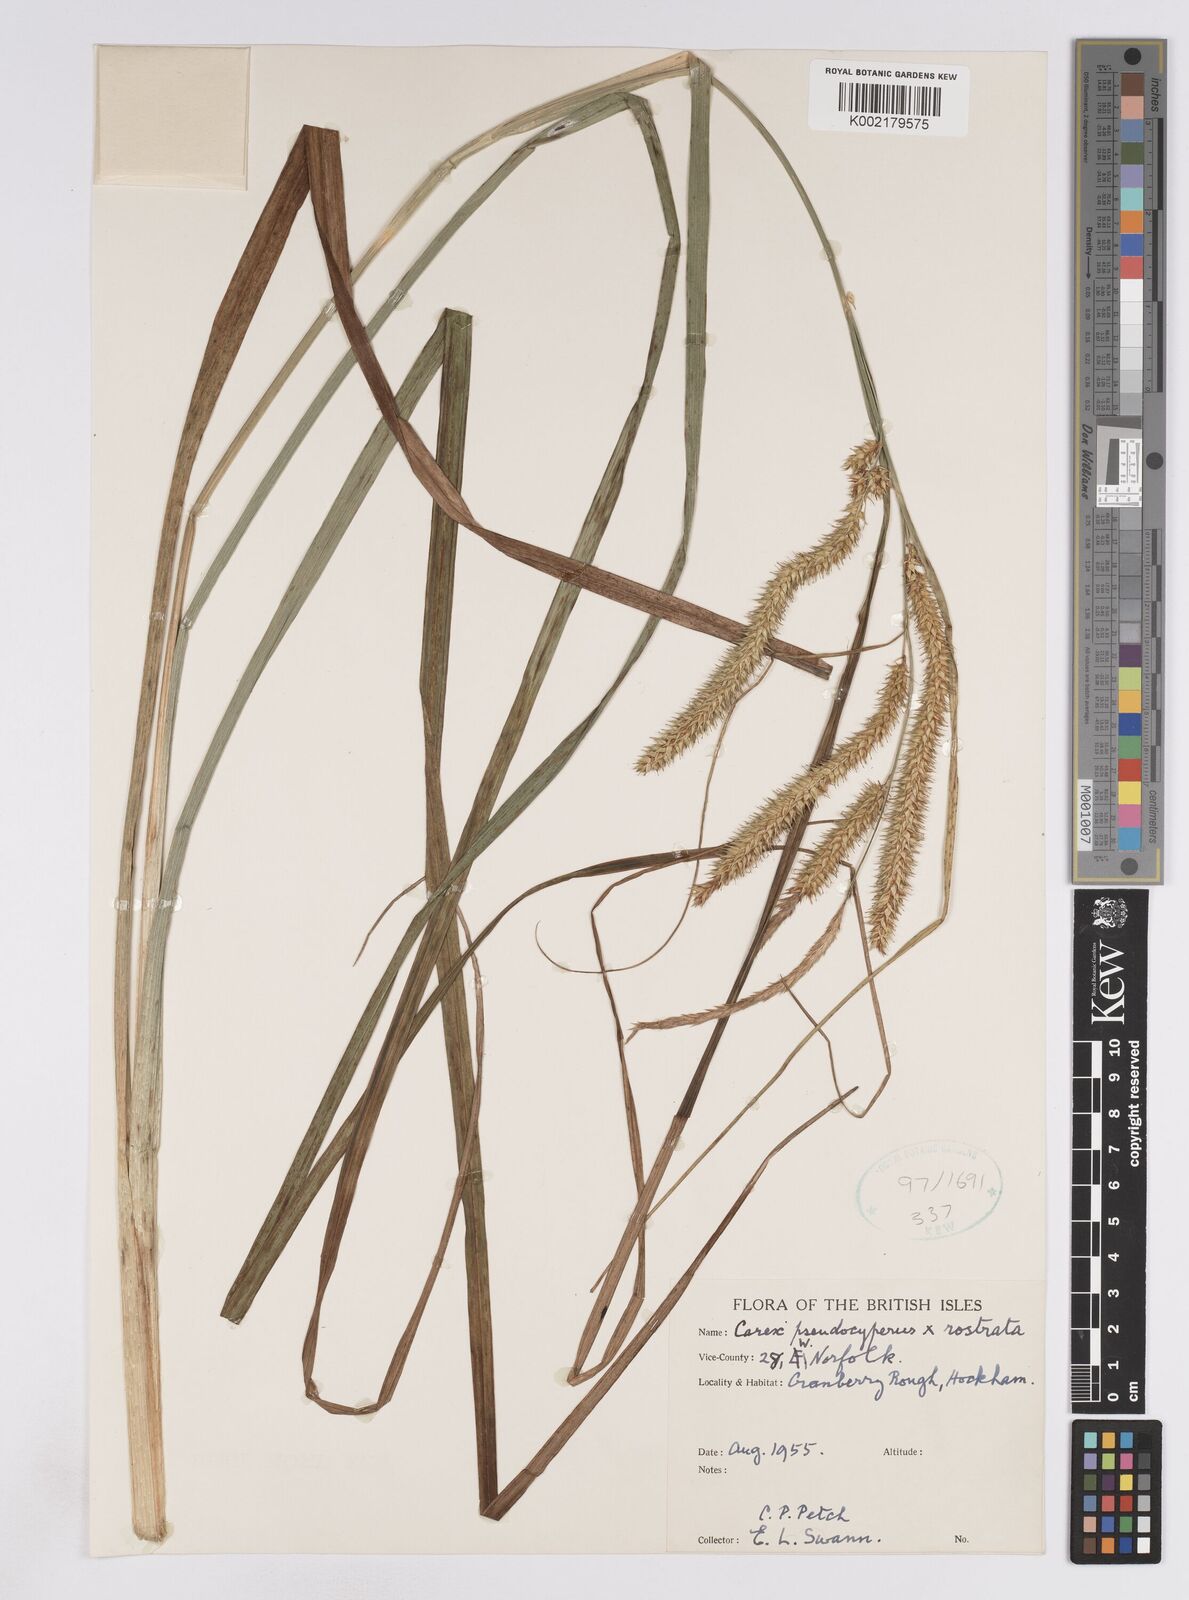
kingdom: Plantae
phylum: Tracheophyta
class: Liliopsida
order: Poales
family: Cyperaceae
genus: Carex
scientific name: Carex pseudocyperus
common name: Cyperus sedge
